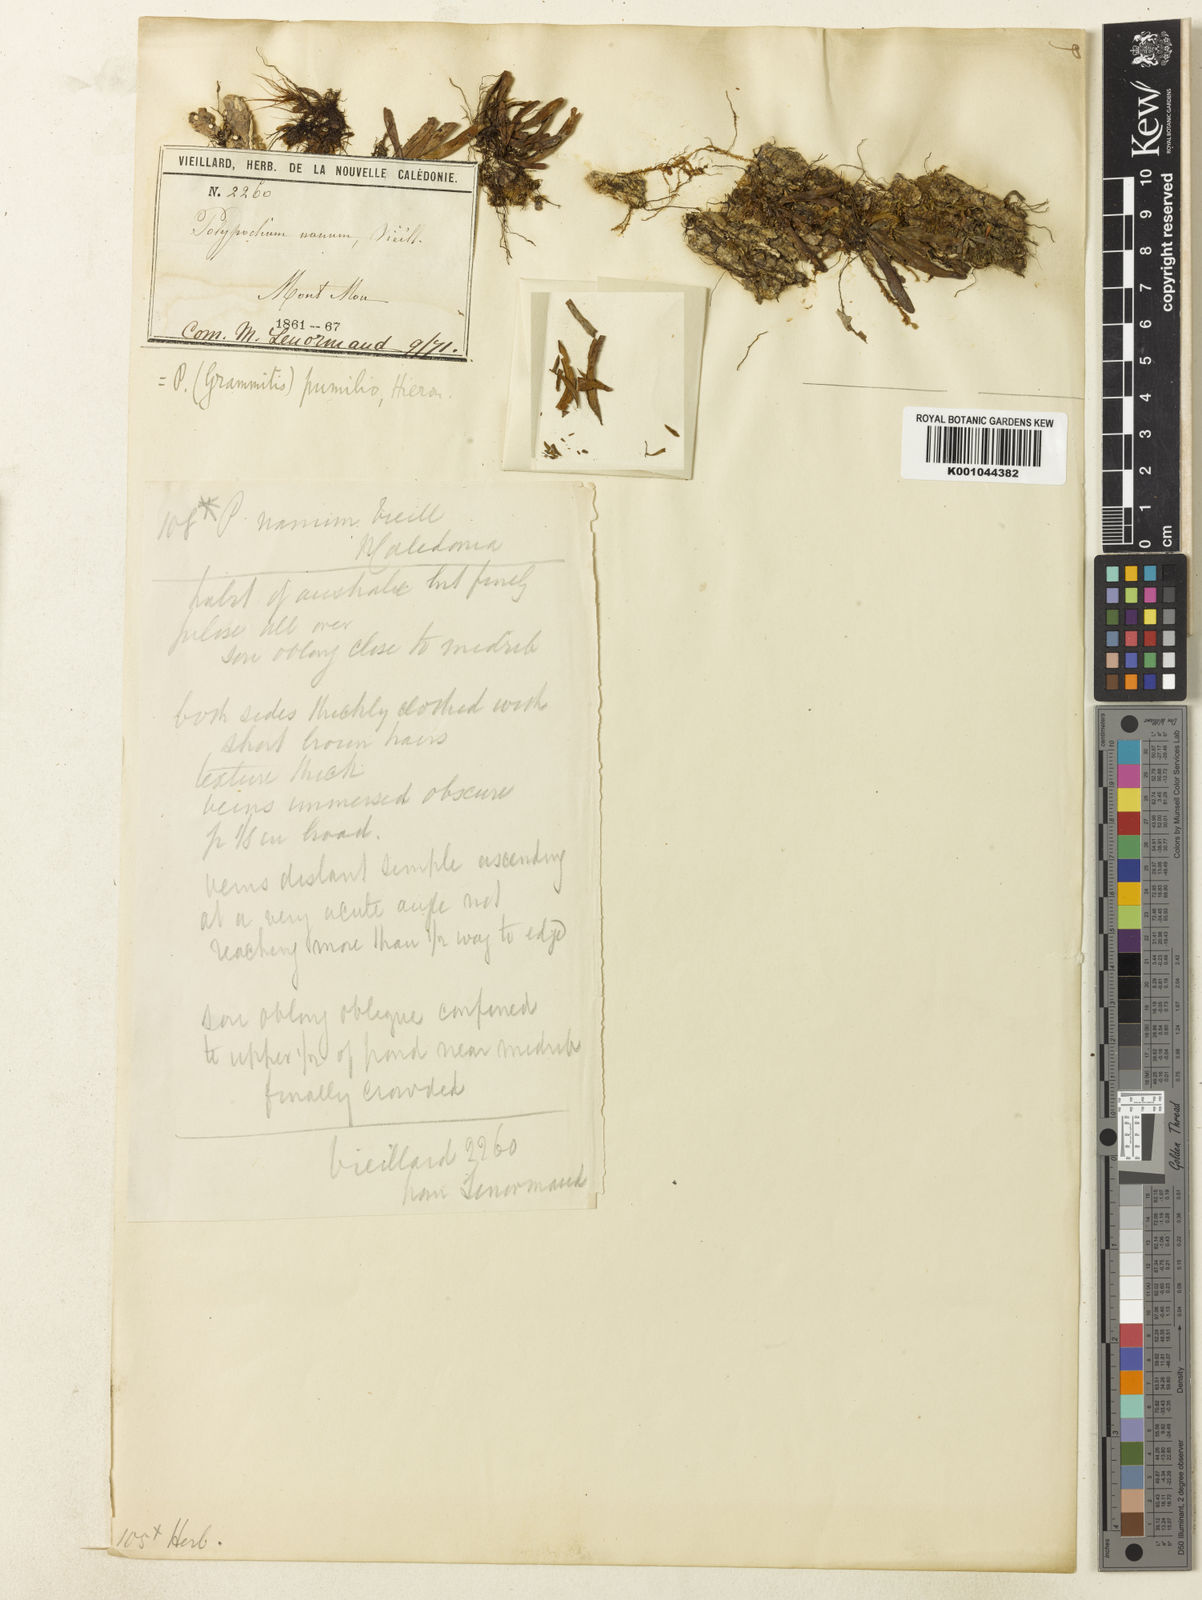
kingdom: Plantae
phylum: Tracheophyta
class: Polypodiopsida
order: Polypodiales
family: Polypodiaceae
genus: Grammitis
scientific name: Grammitis
